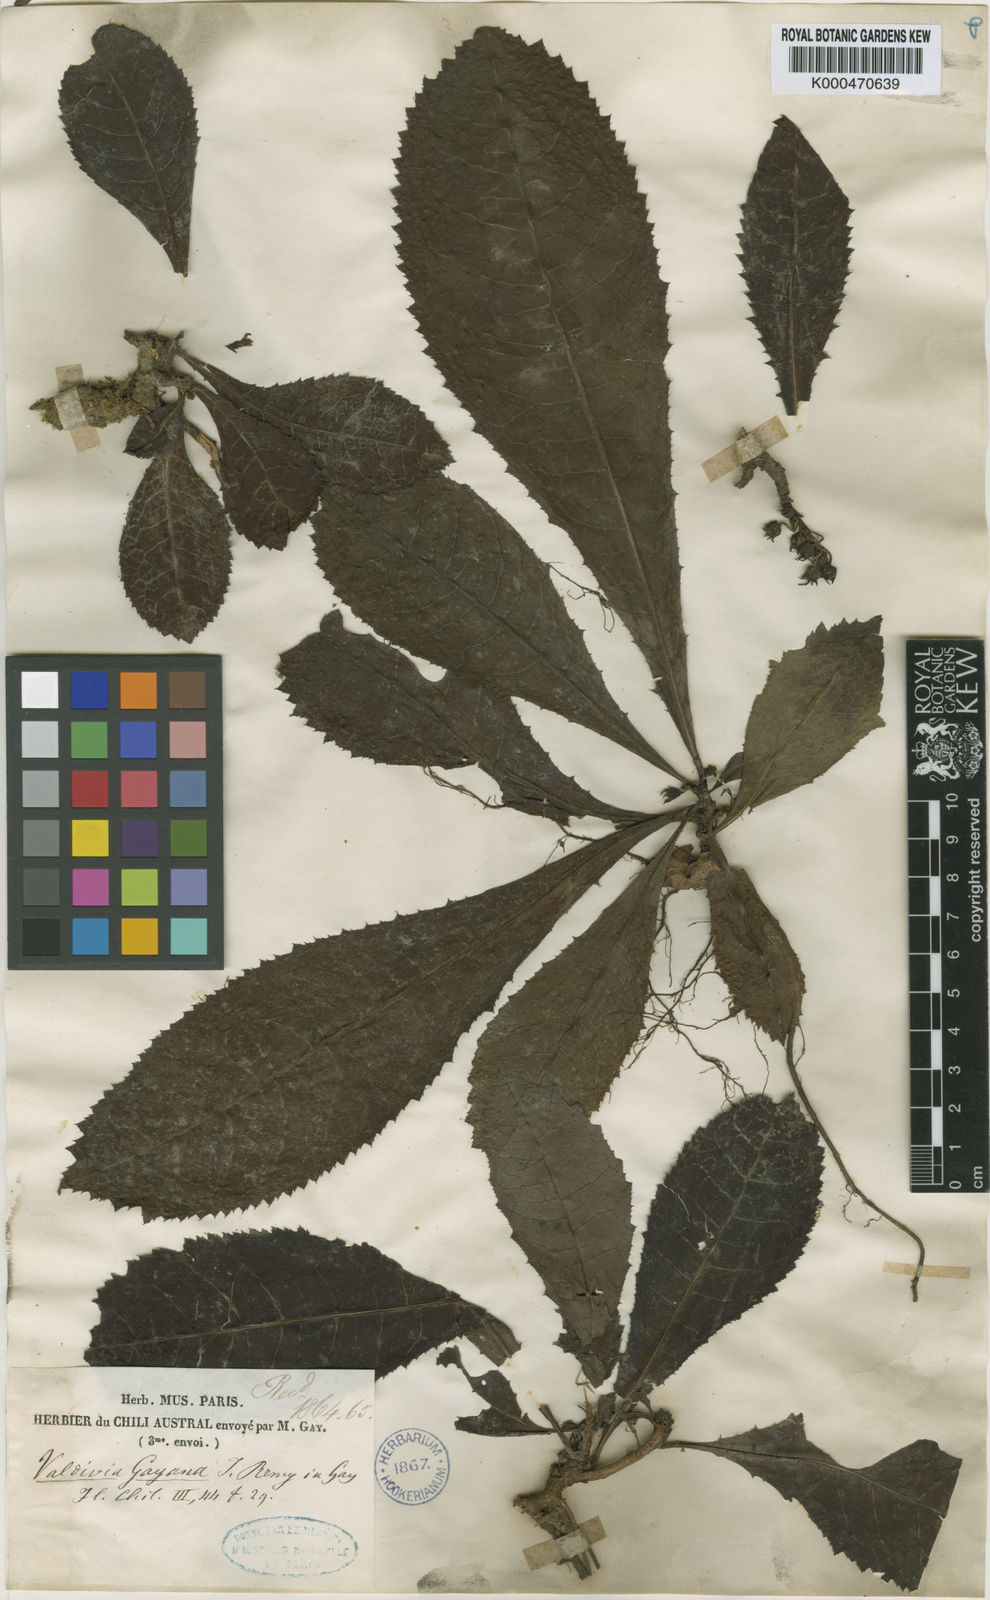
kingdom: Plantae
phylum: Tracheophyta
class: Magnoliopsida
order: Escalloniales
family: Escalloniaceae
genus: Valdivia
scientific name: Valdivia gayana
